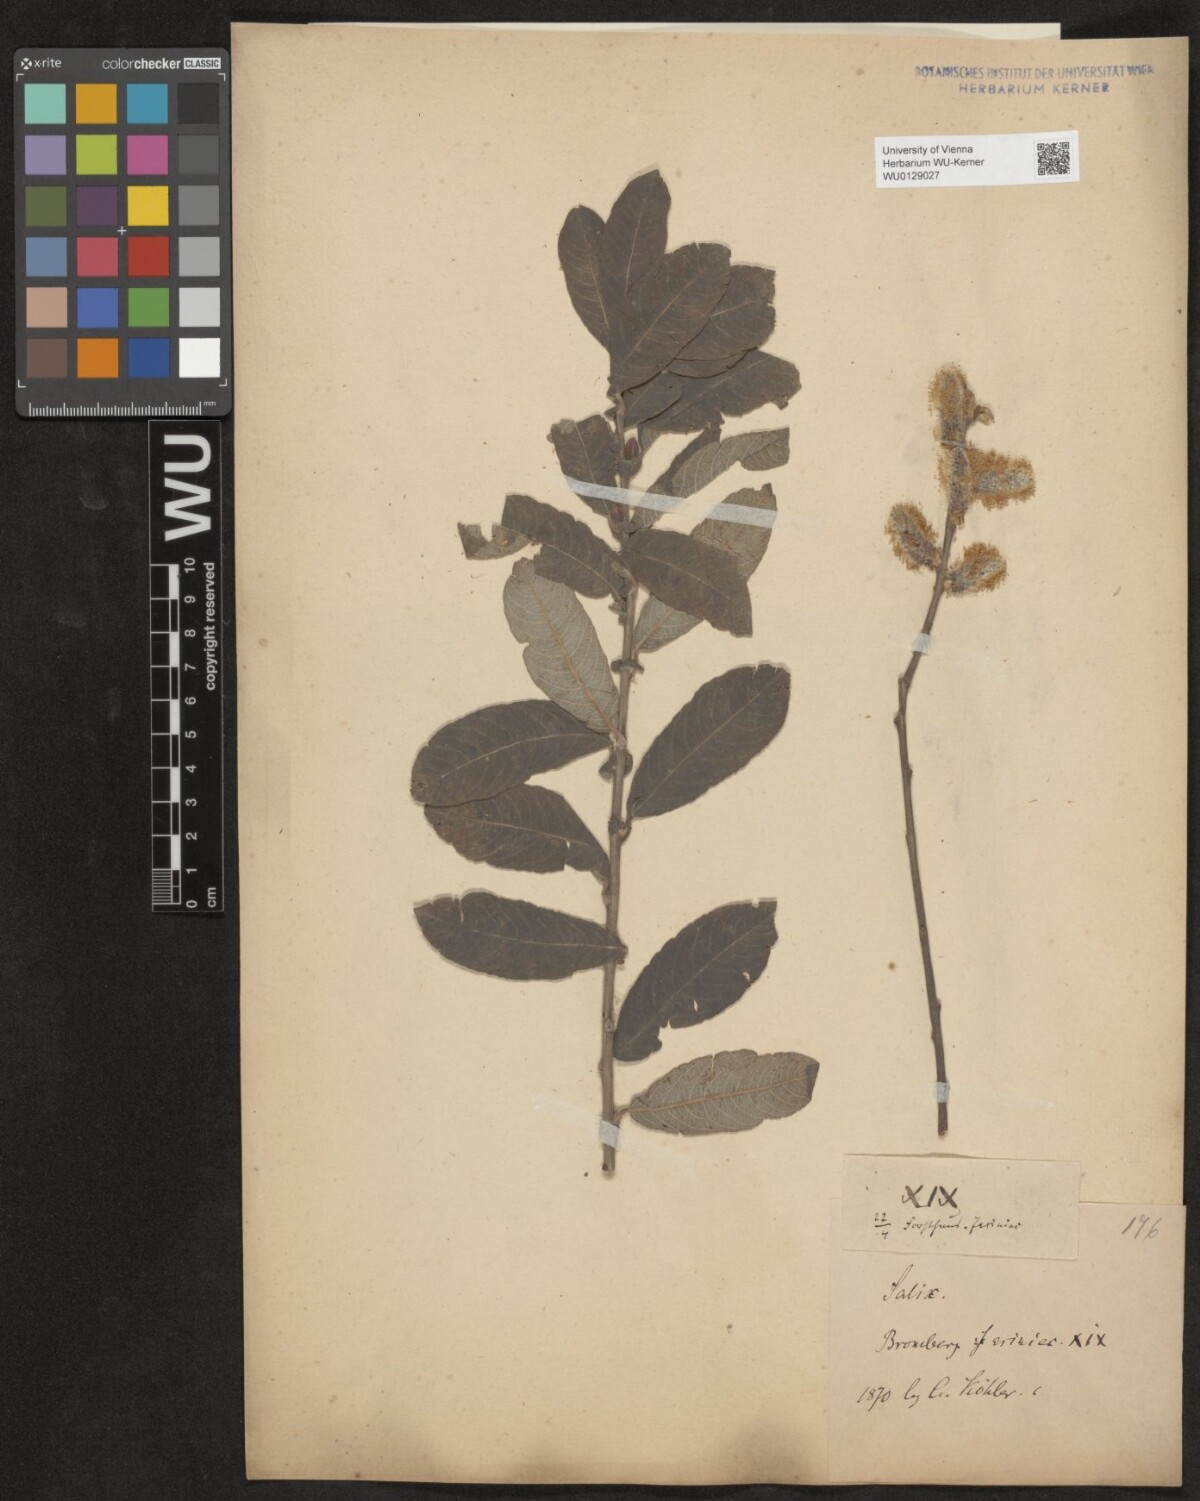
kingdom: Plantae
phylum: Tracheophyta
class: Magnoliopsida
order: Malpighiales
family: Salicaceae
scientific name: Salicaceae
